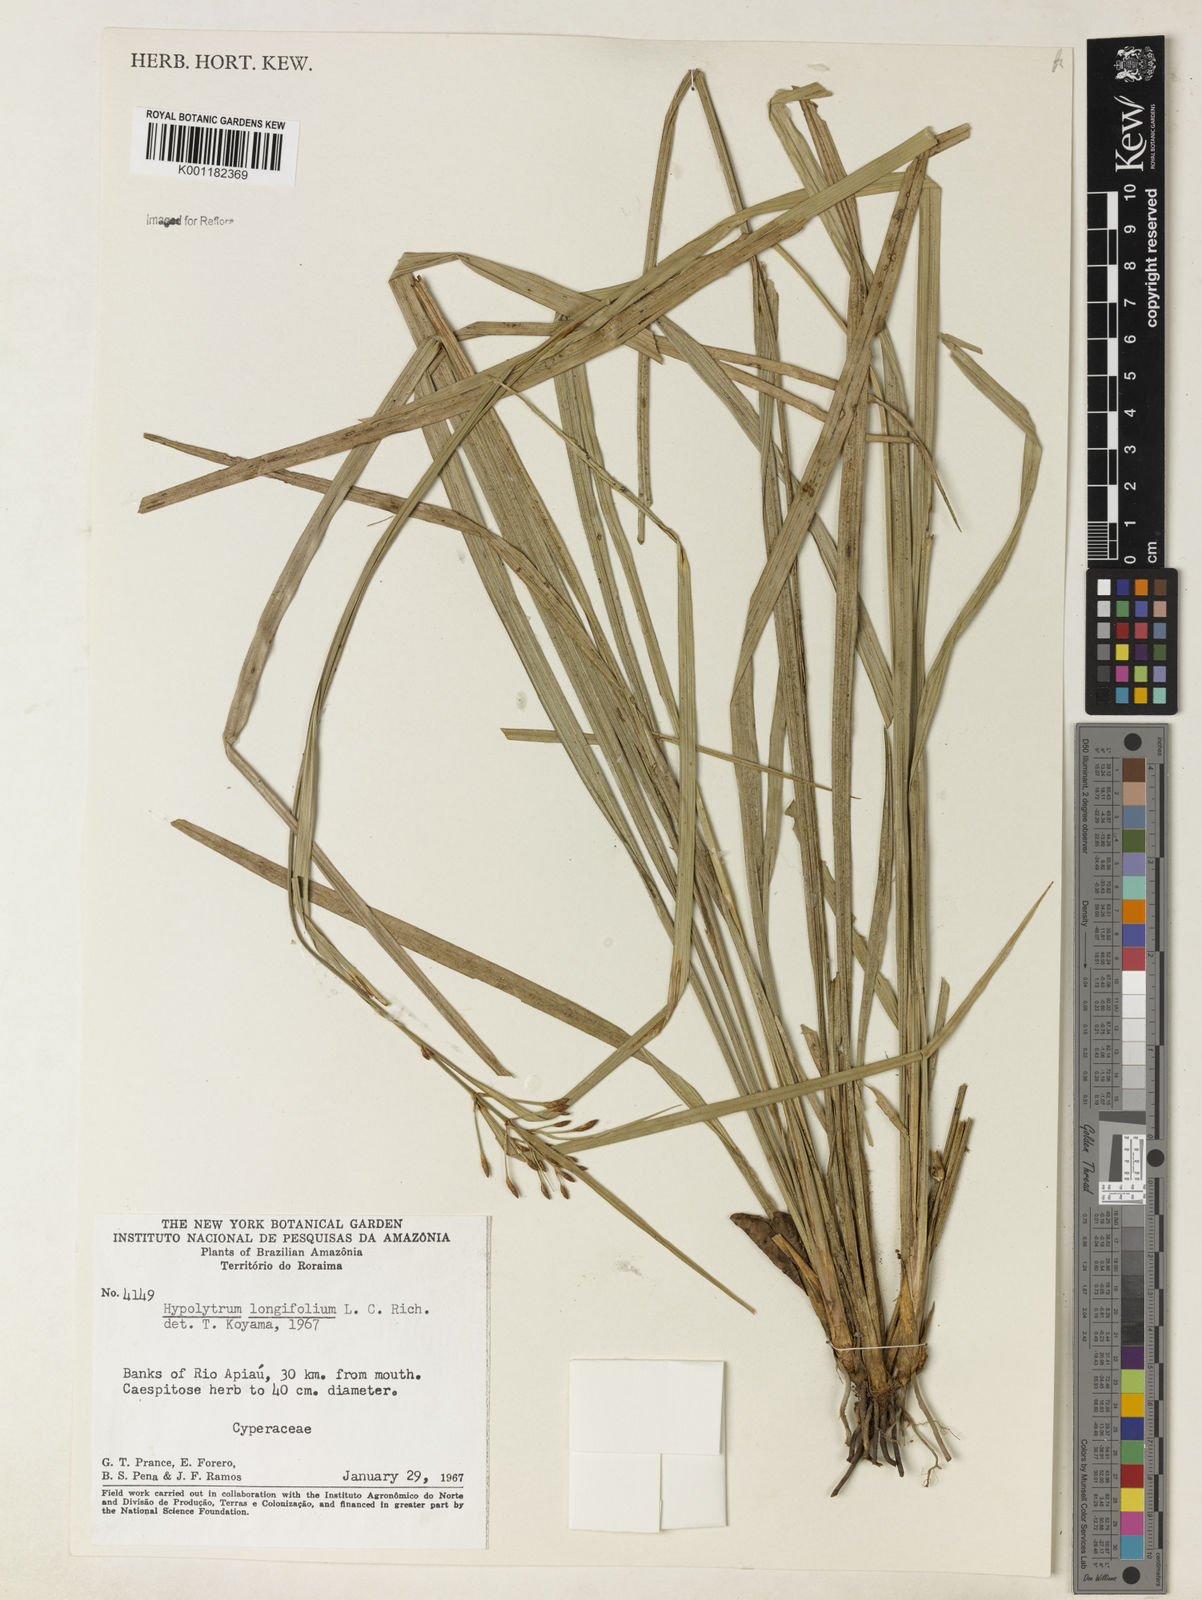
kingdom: Plantae
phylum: Tracheophyta
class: Liliopsida
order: Poales
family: Cyperaceae
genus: Hypolytrum
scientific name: Hypolytrum longifolium
